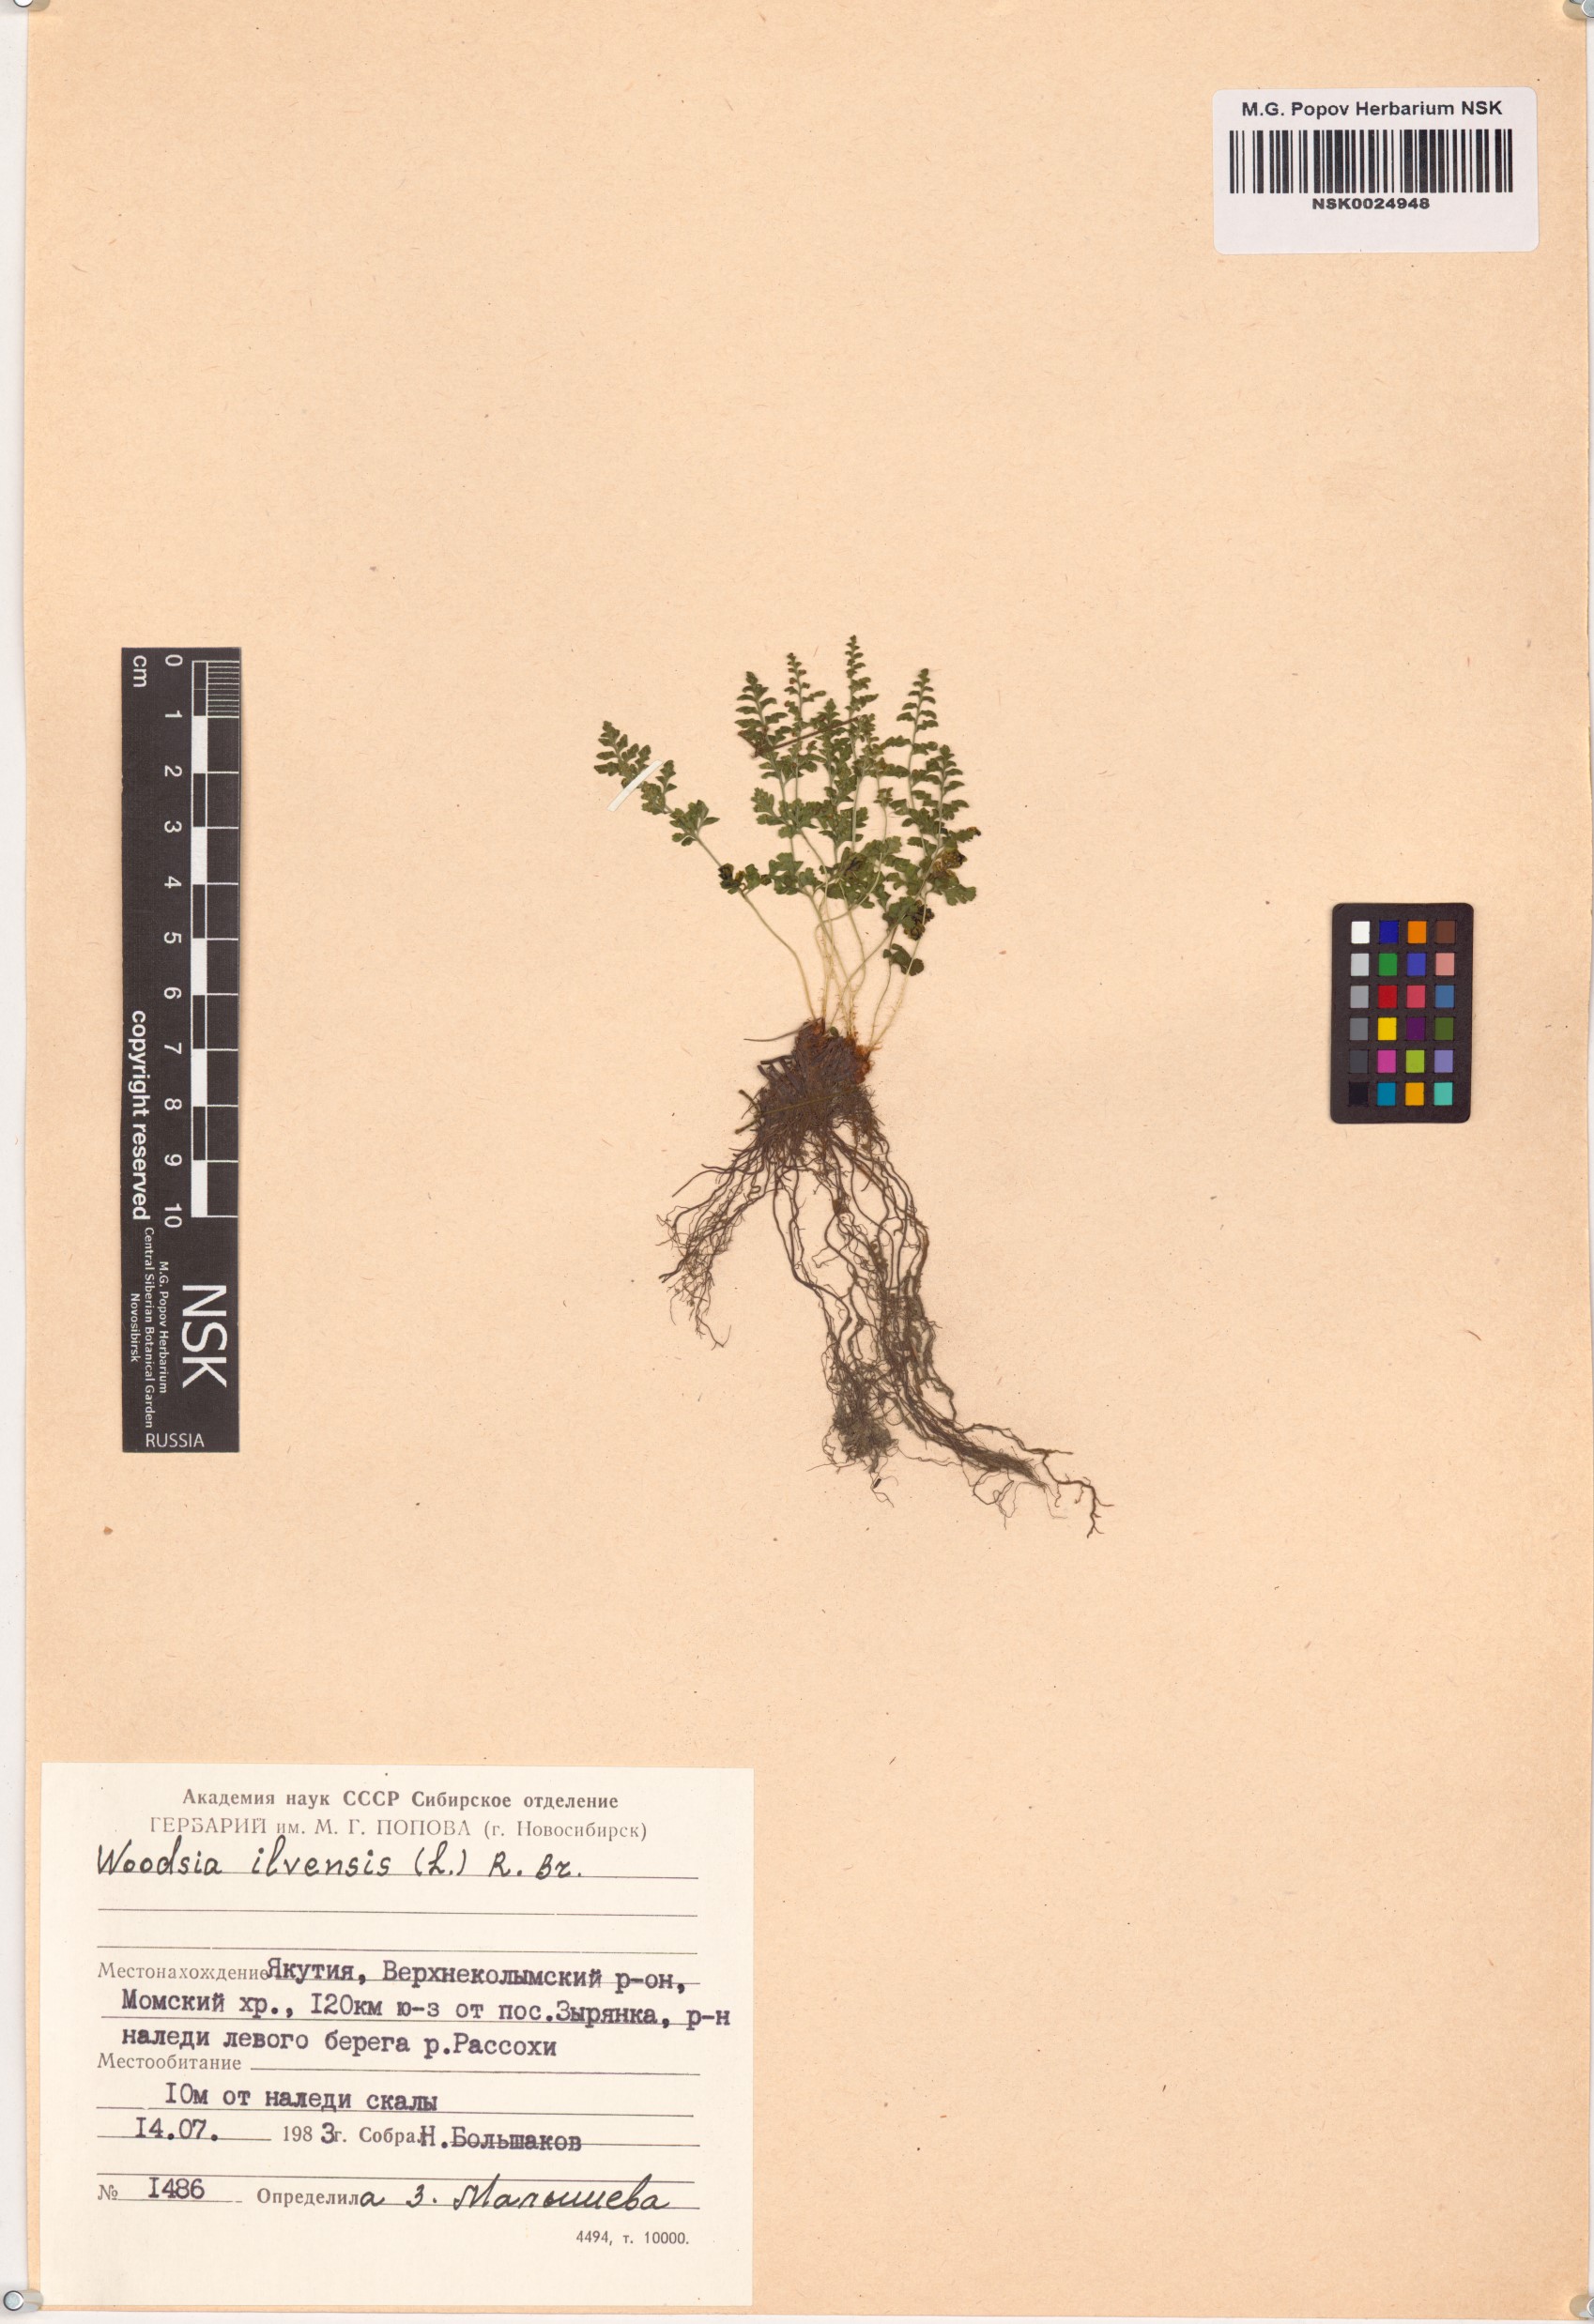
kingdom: Plantae
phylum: Tracheophyta
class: Polypodiopsida
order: Polypodiales
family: Woodsiaceae
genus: Woodsia
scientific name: Woodsia ilvensis
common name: Fragrant woodsia
